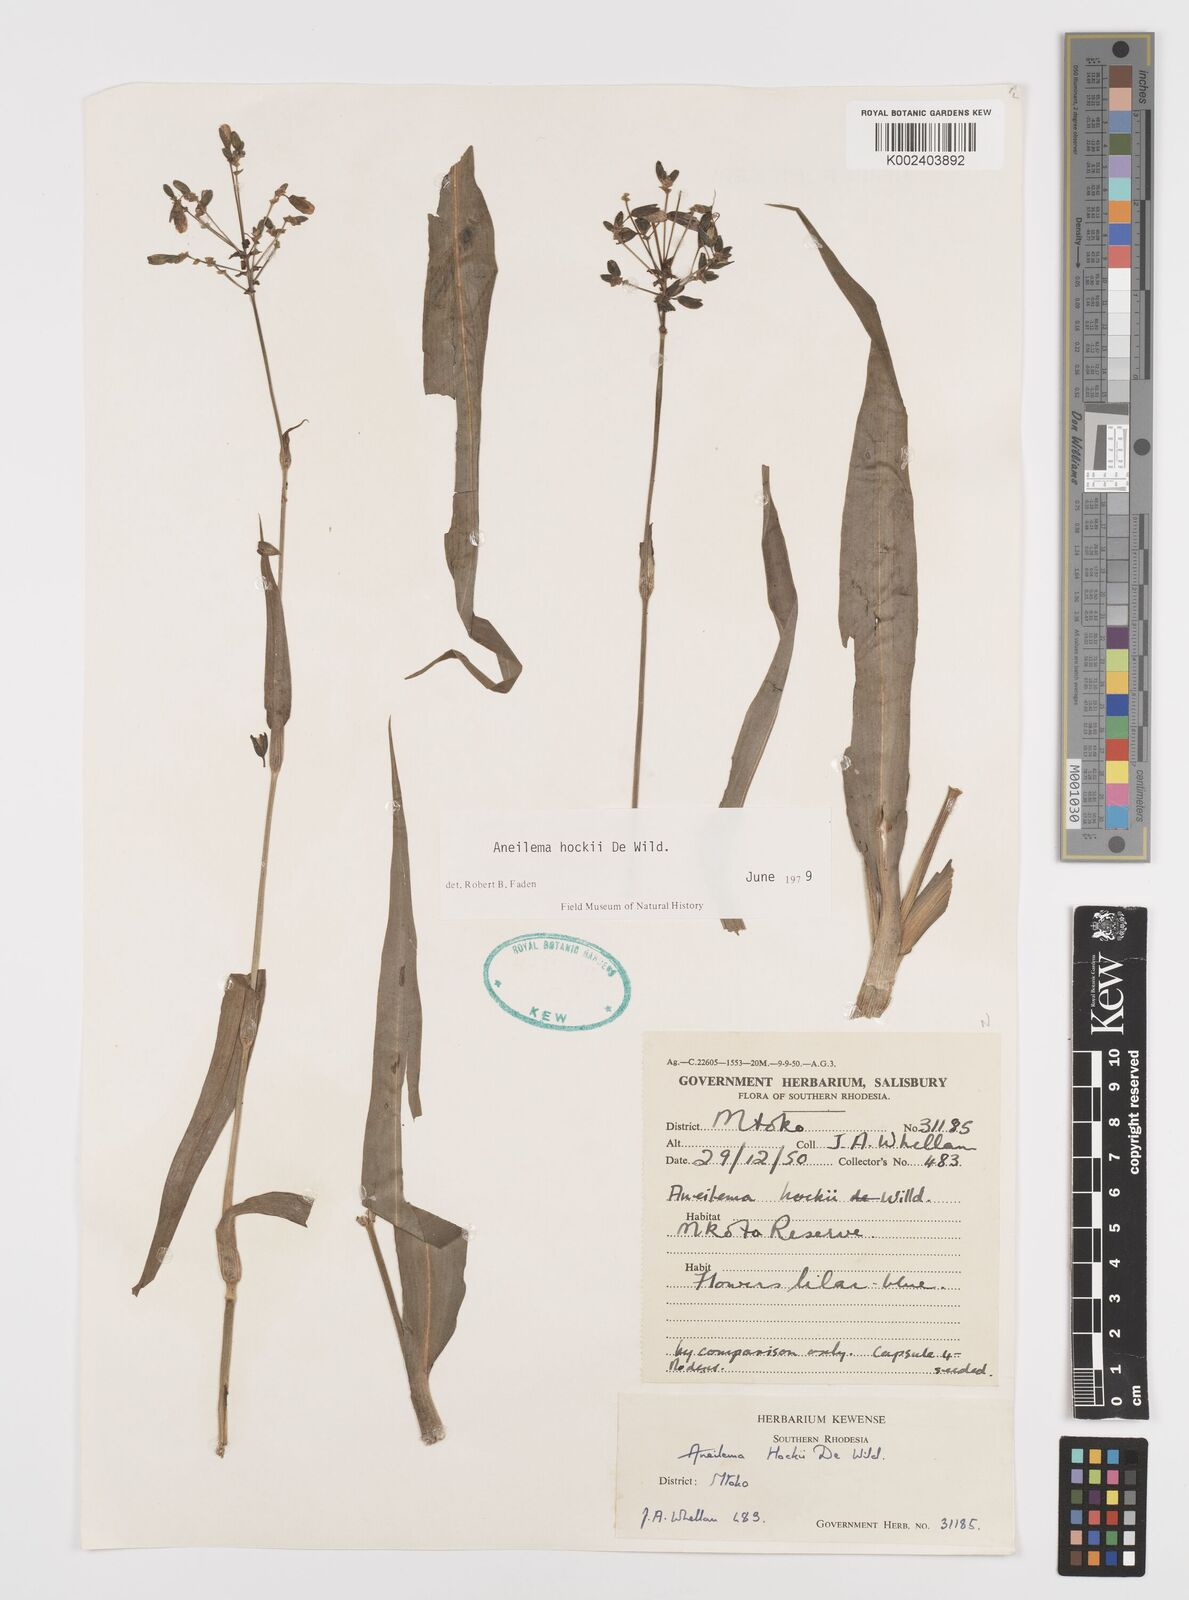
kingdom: Plantae
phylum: Tracheophyta
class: Liliopsida
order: Commelinales
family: Commelinaceae
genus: Aneilema
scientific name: Aneilema hockii
